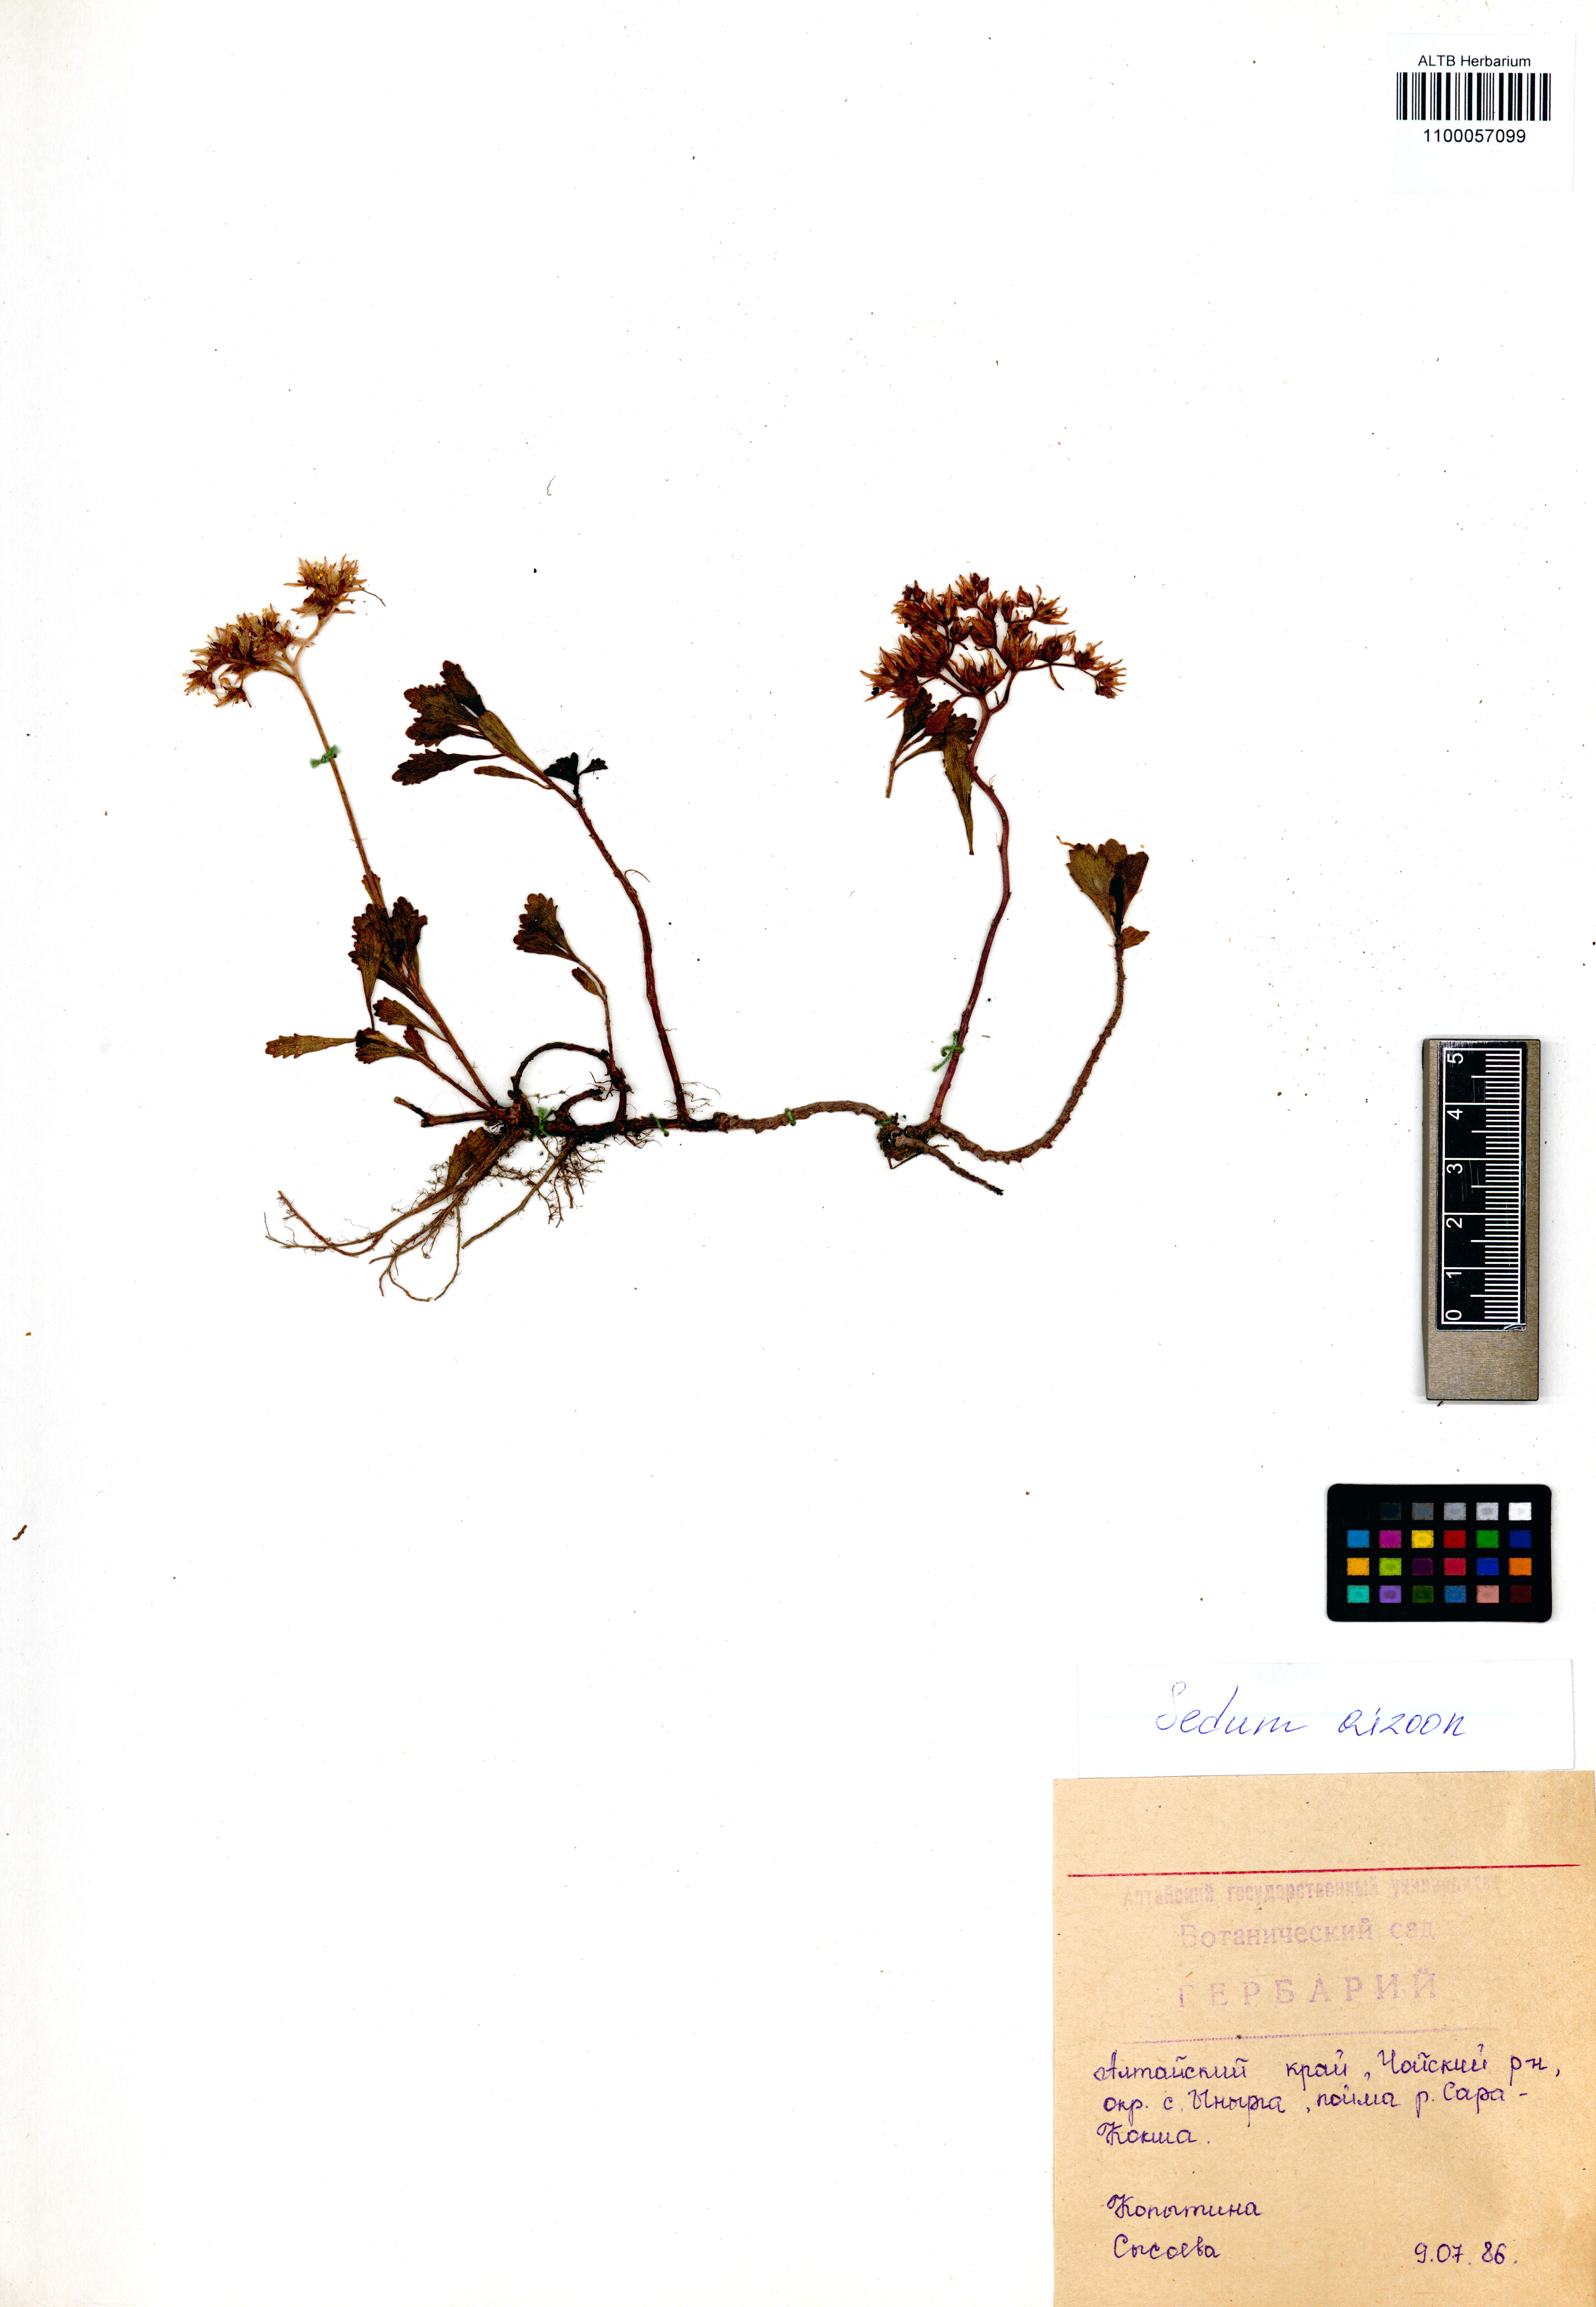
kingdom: Plantae
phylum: Tracheophyta
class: Magnoliopsida
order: Saxifragales
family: Crassulaceae
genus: Phedimus
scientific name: Phedimus aizoon
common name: Orpin aizoon
